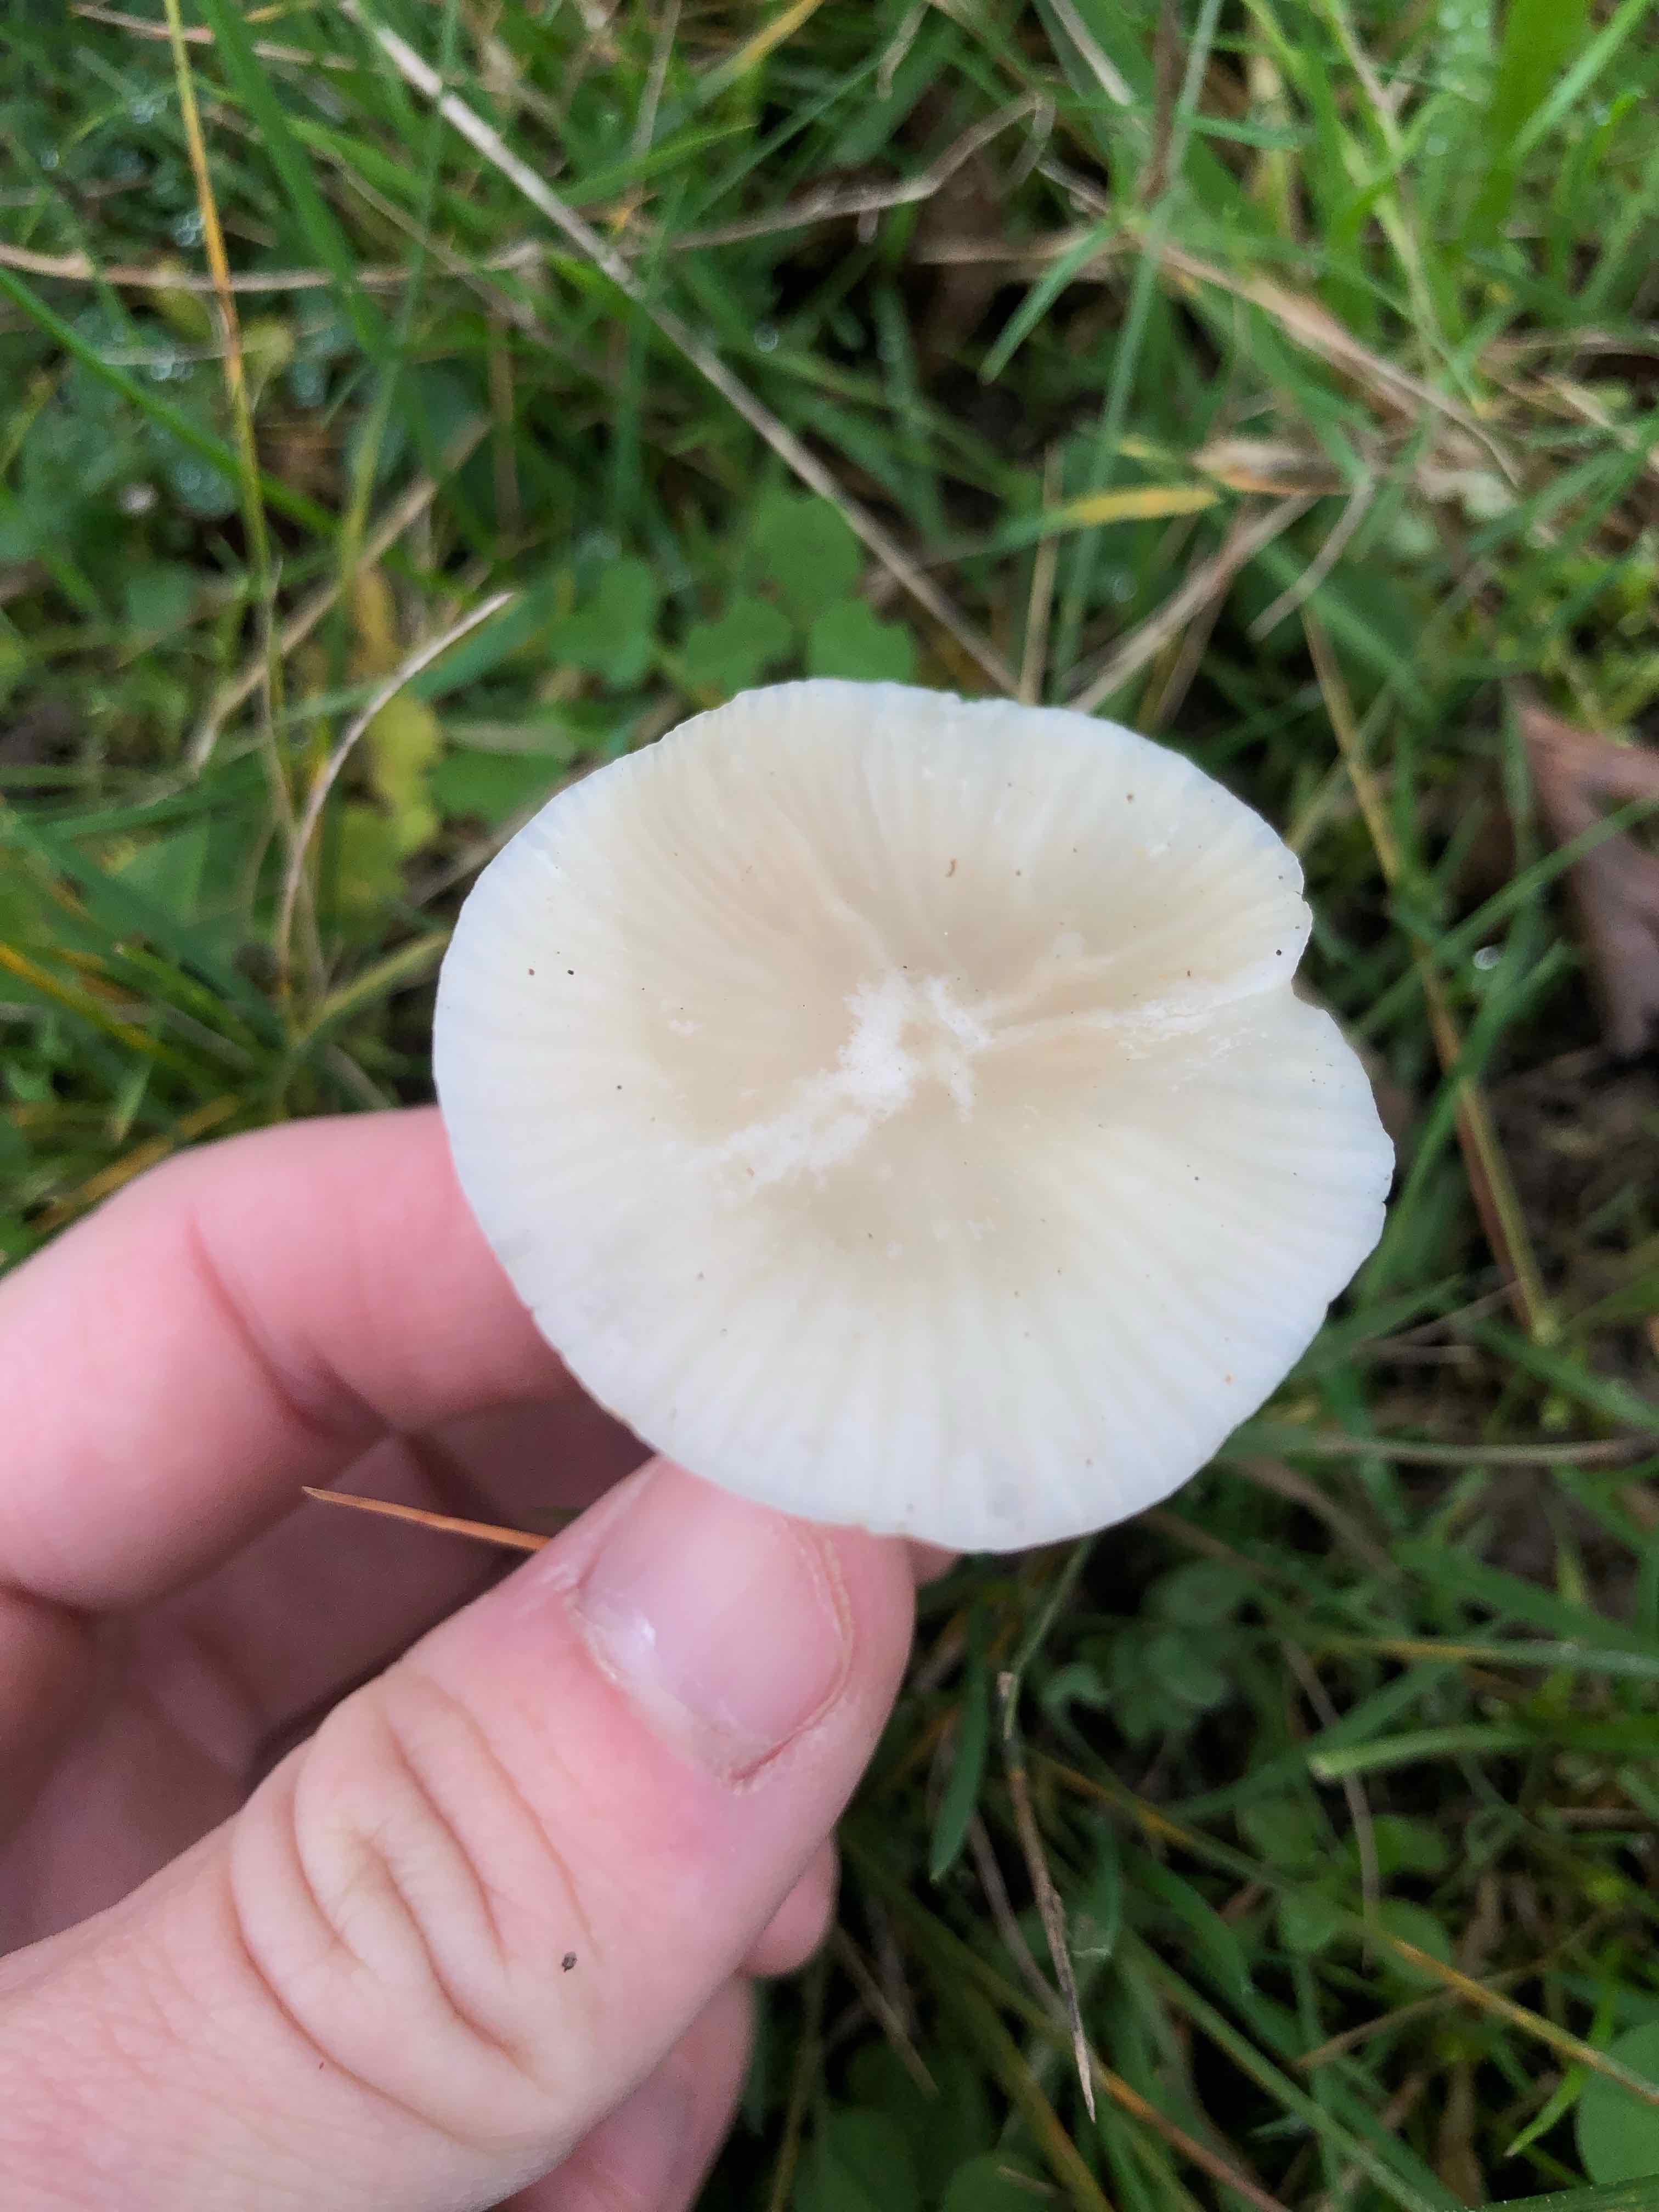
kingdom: Fungi
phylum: Basidiomycota
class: Agaricomycetes
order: Agaricales
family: Hygrophoraceae
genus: Cuphophyllus
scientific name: Cuphophyllus virgineus
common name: snehvid vokshat
